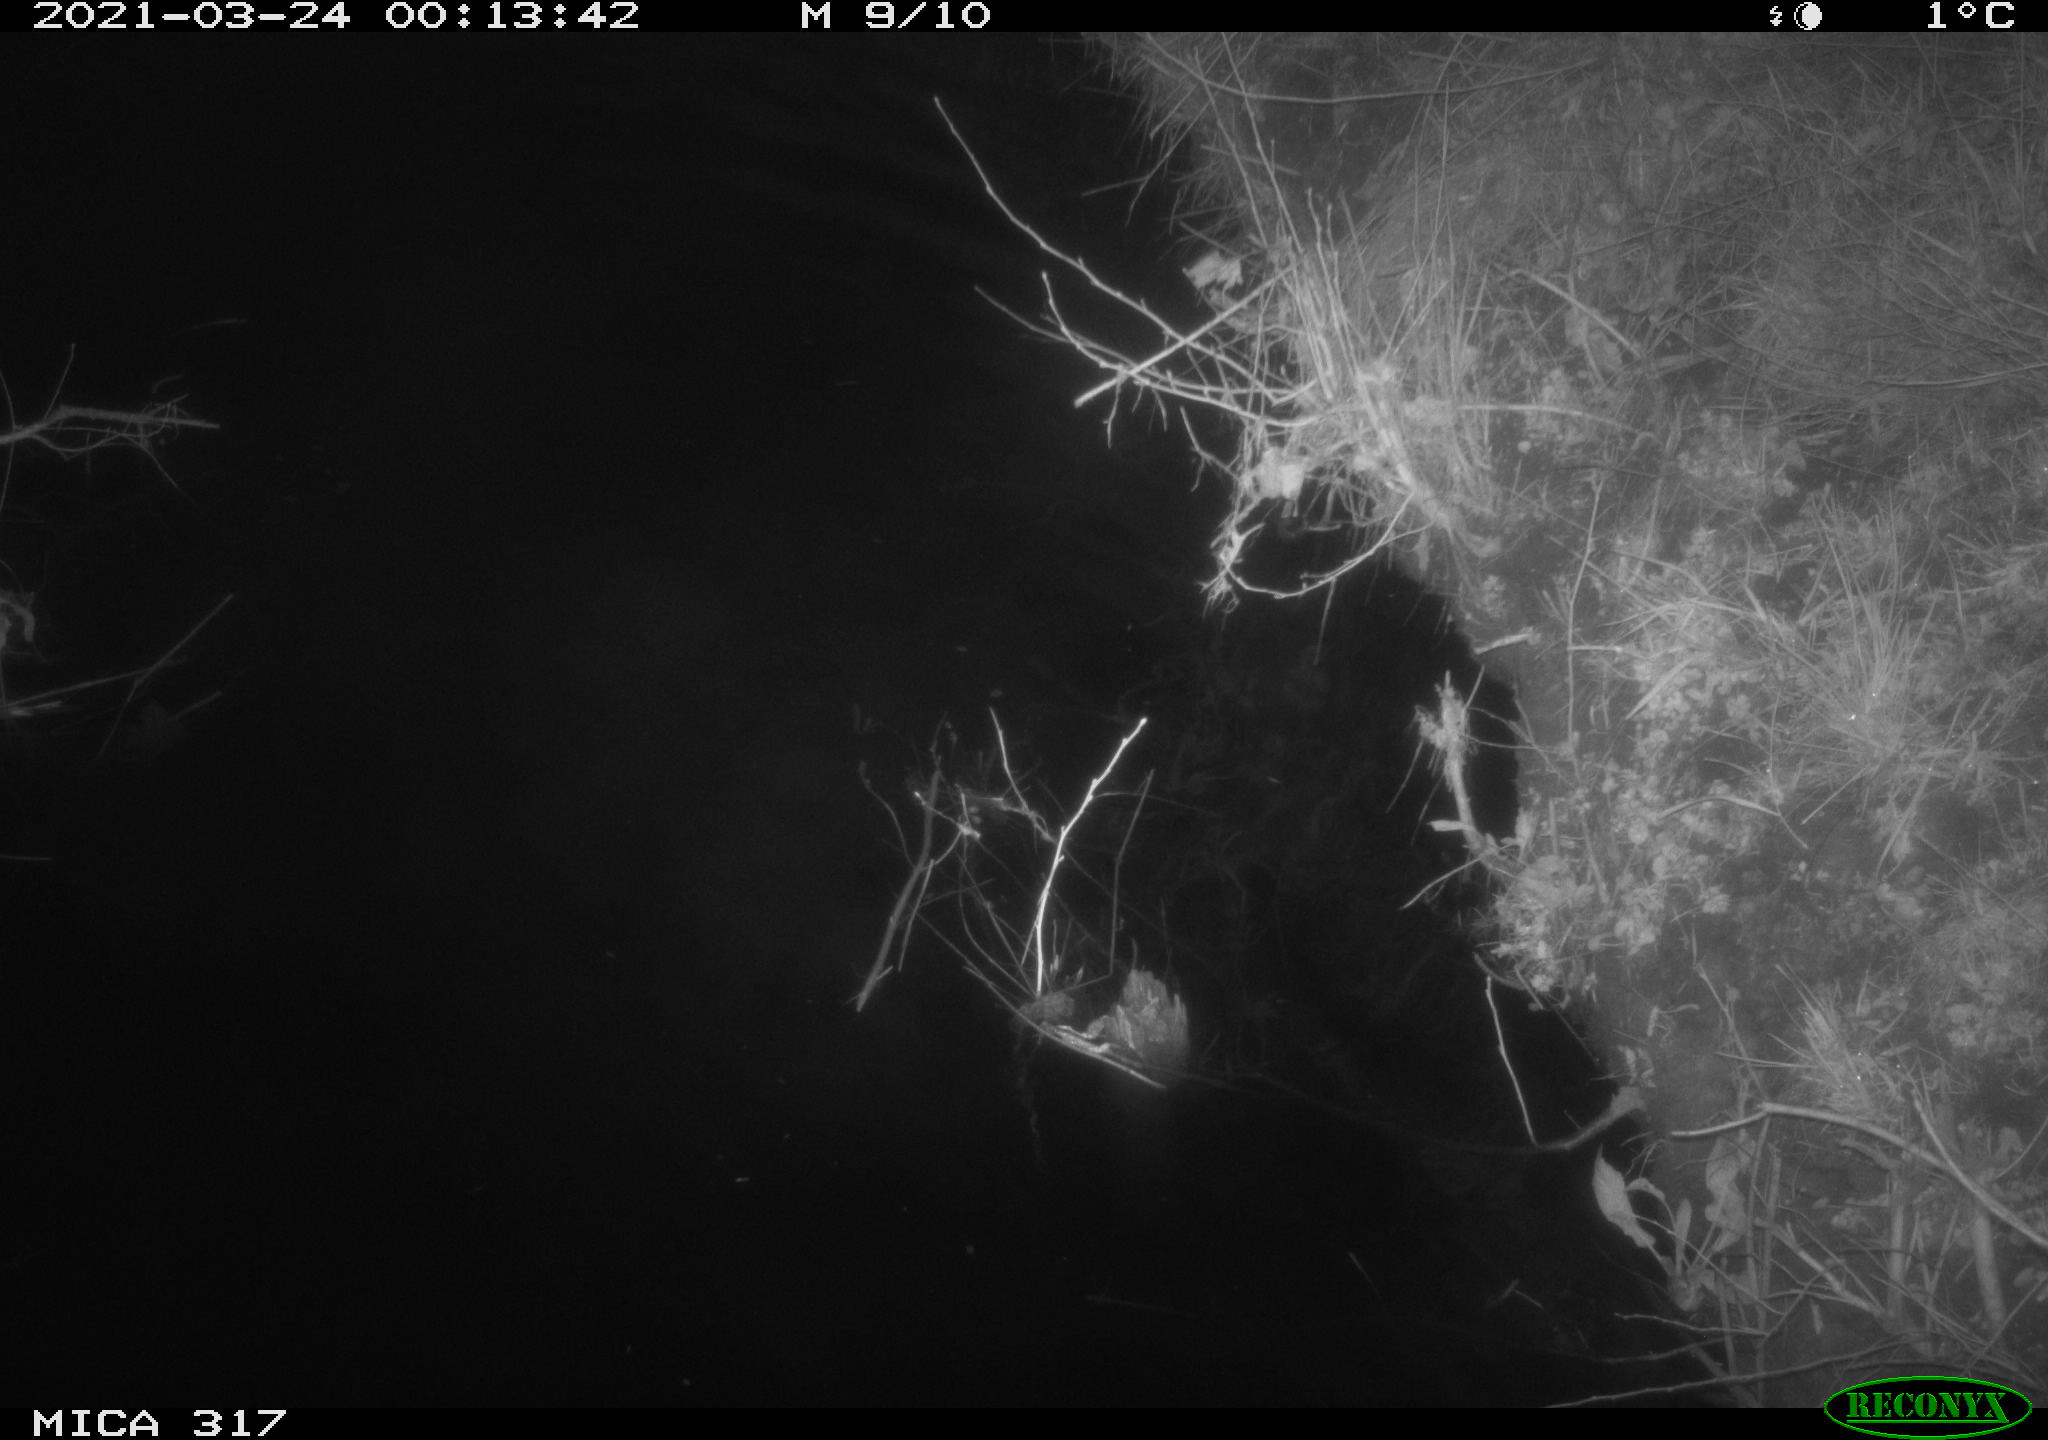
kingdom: Animalia
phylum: Chordata
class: Aves
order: Anseriformes
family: Anatidae
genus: Anas
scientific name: Anas platyrhynchos
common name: Mallard
